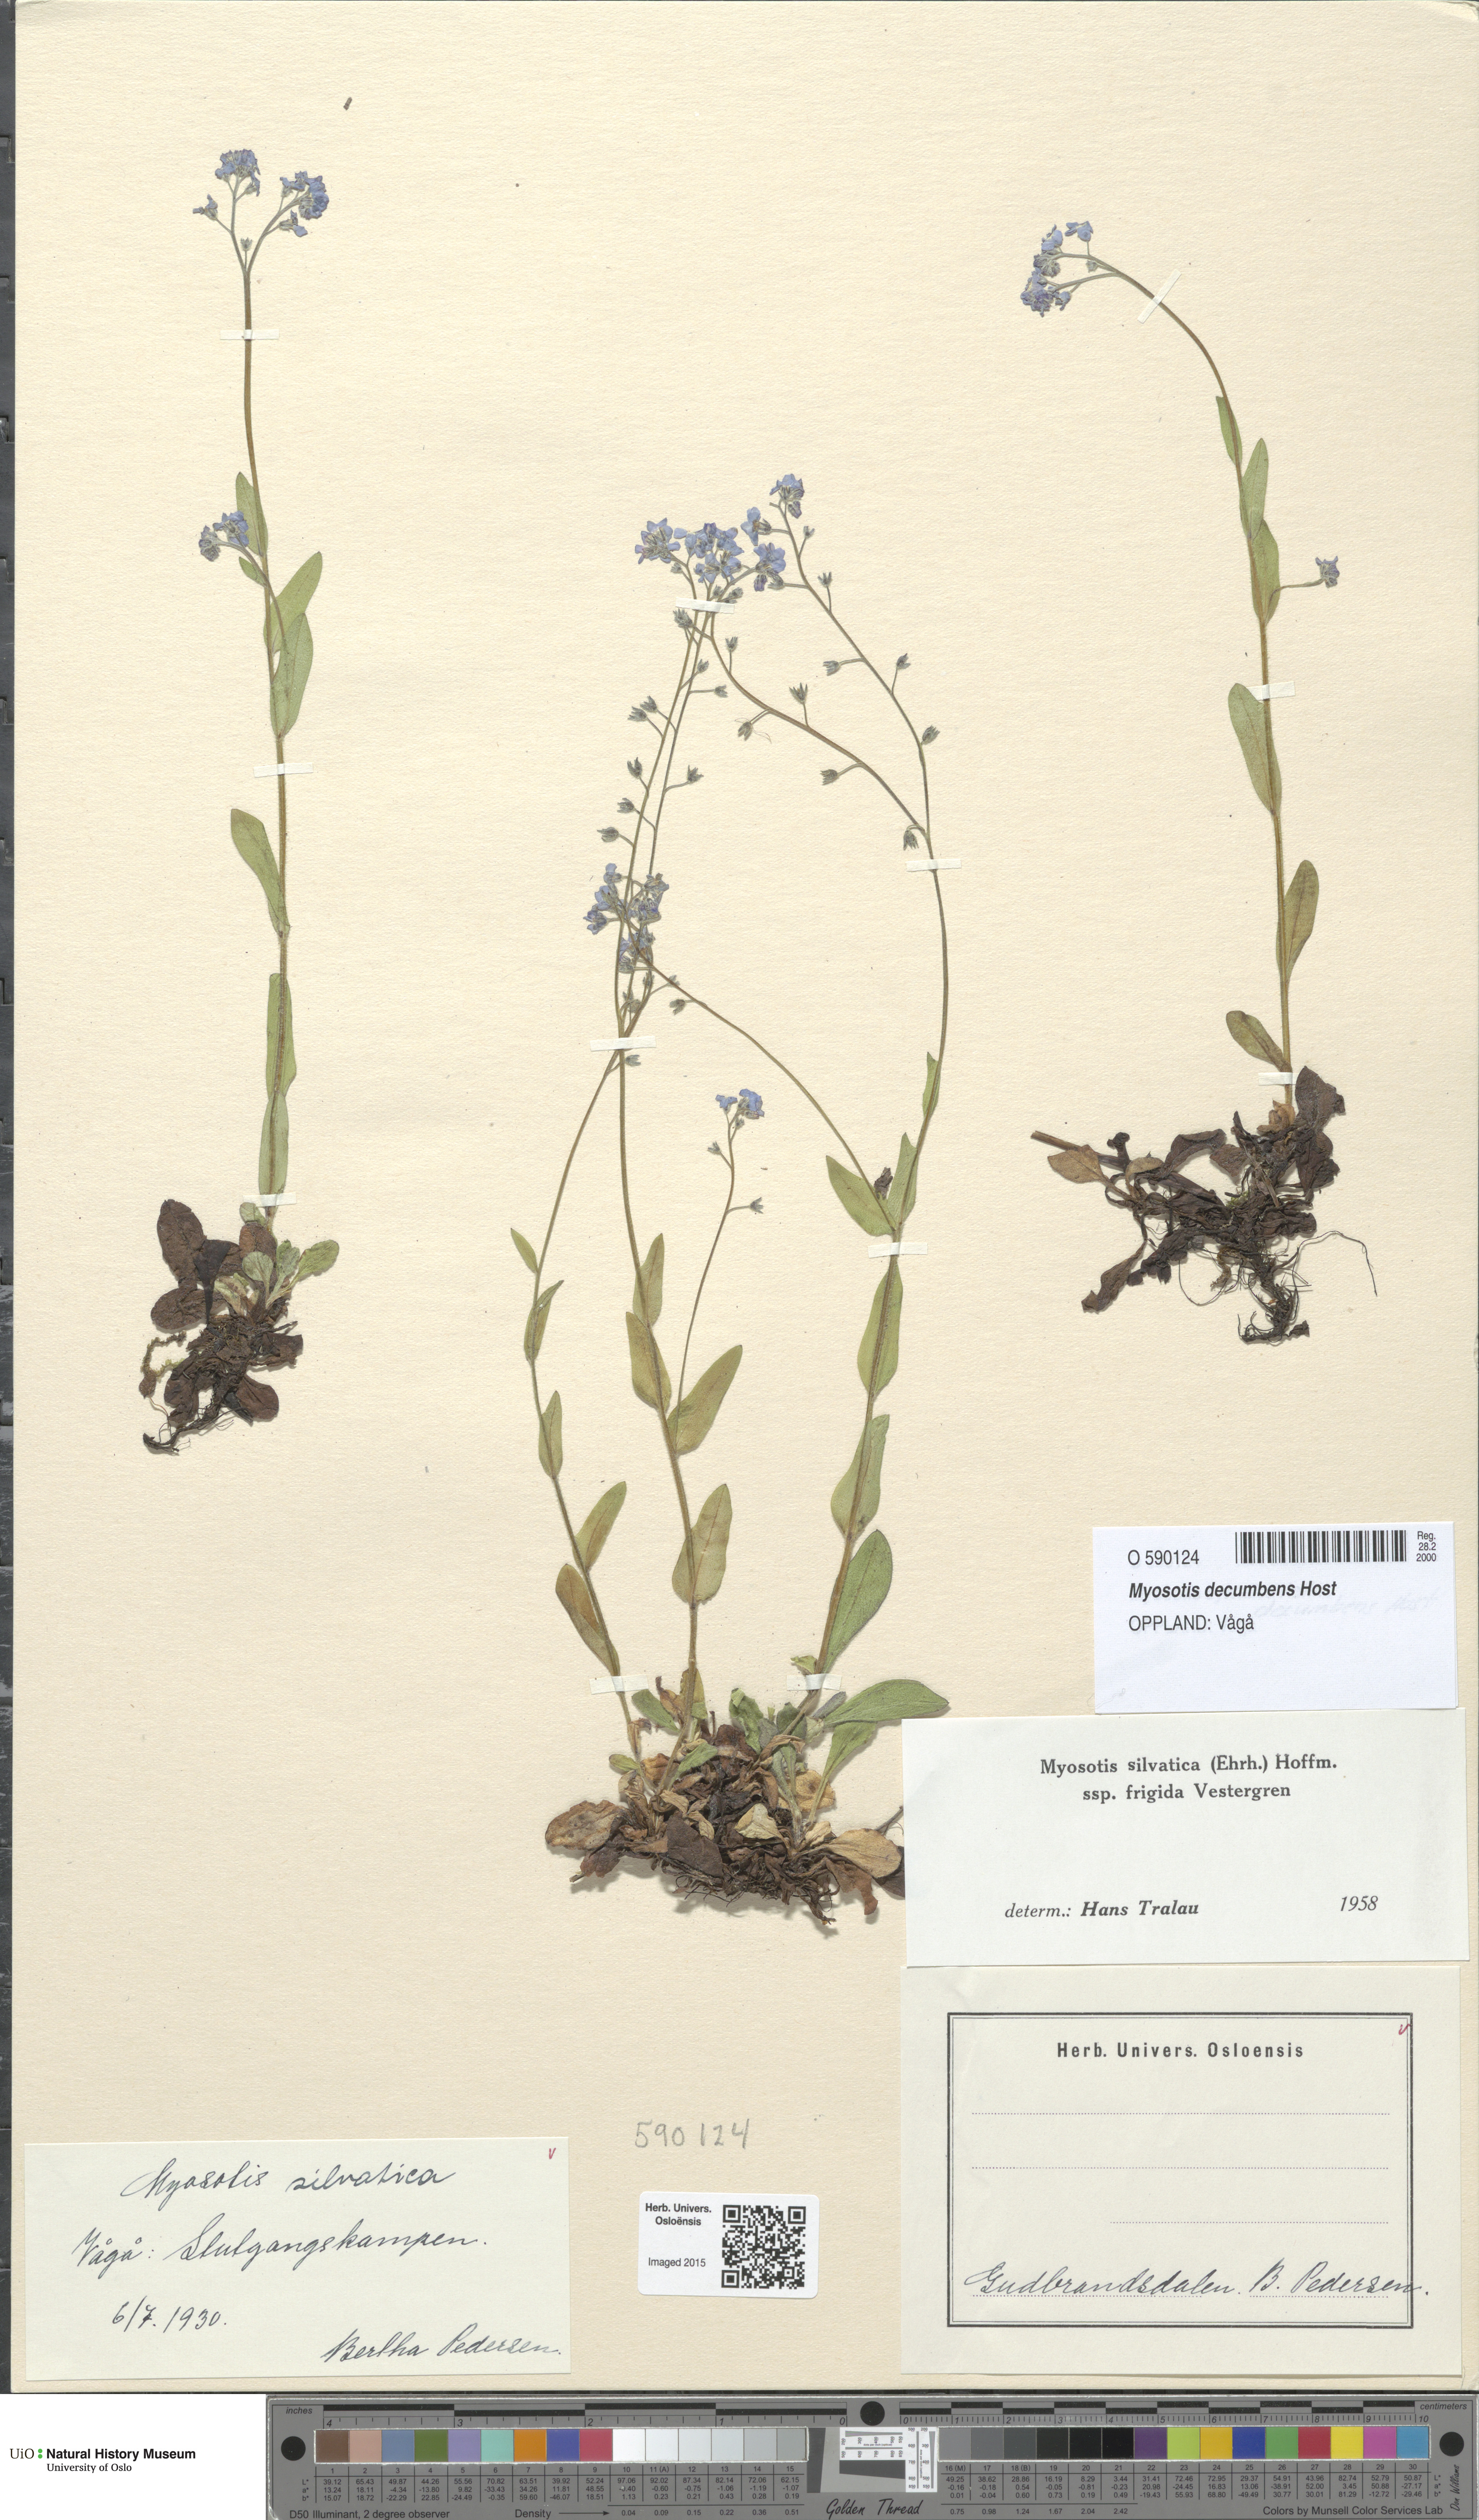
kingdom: Plantae
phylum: Tracheophyta
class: Magnoliopsida
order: Boraginales
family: Boraginaceae
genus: Myosotis
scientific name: Myosotis decumbens
